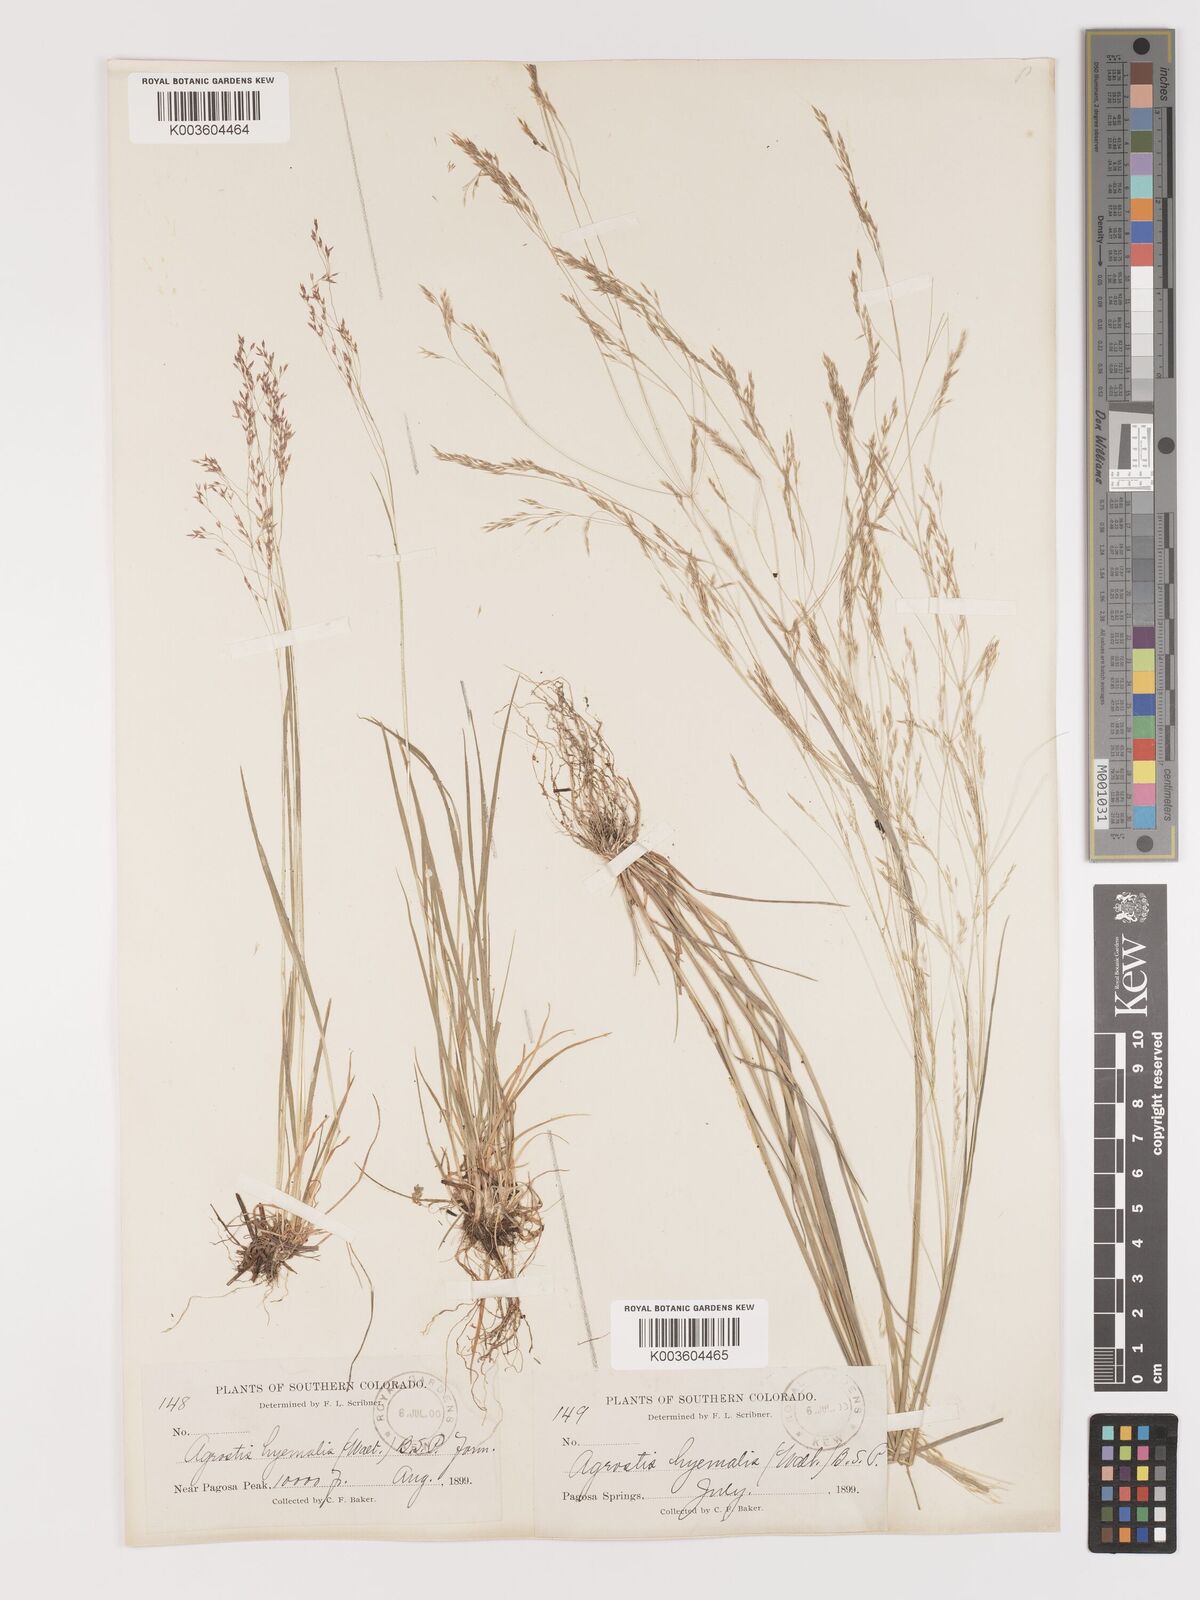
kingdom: Plantae
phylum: Tracheophyta
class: Liliopsida
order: Poales
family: Poaceae
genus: Agrostis
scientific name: Agrostis hyemalis
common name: Small bent
